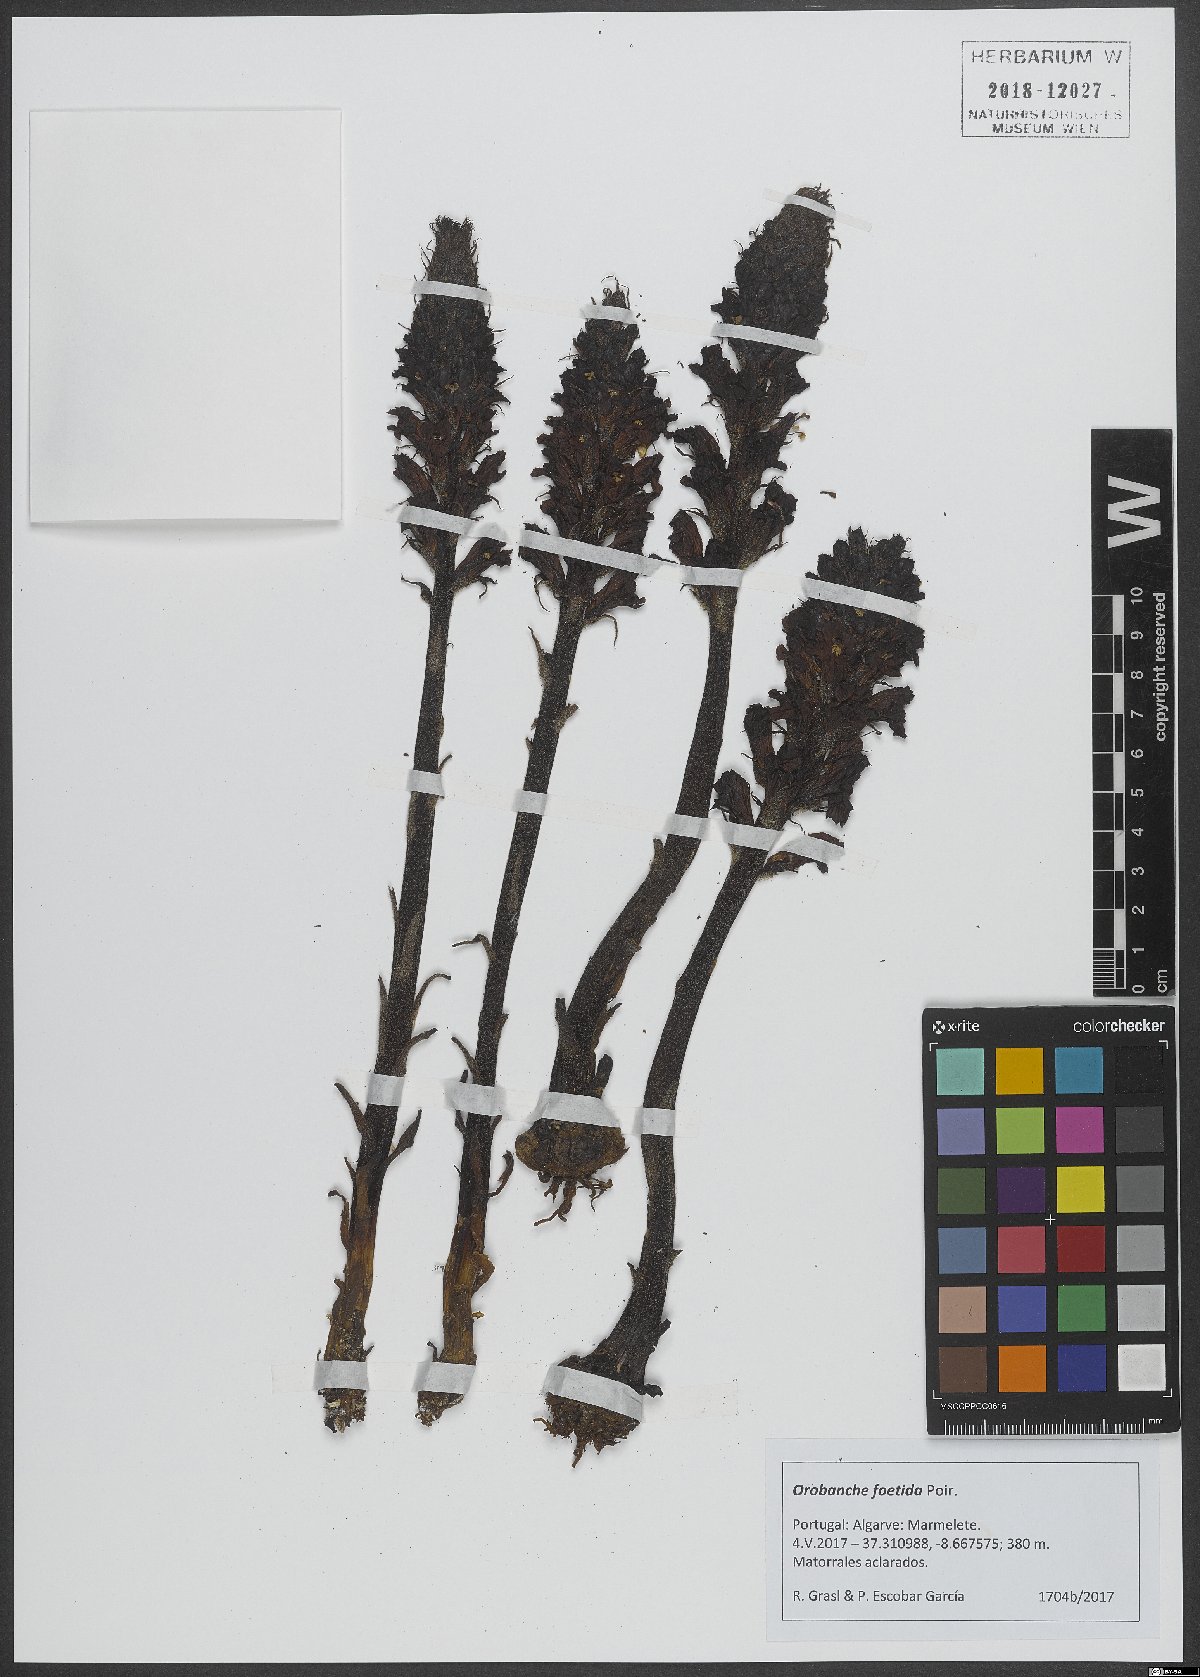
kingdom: Plantae
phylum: Tracheophyta
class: Magnoliopsida
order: Lamiales
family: Orobanchaceae
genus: Orobanche
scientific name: Orobanche foetida
